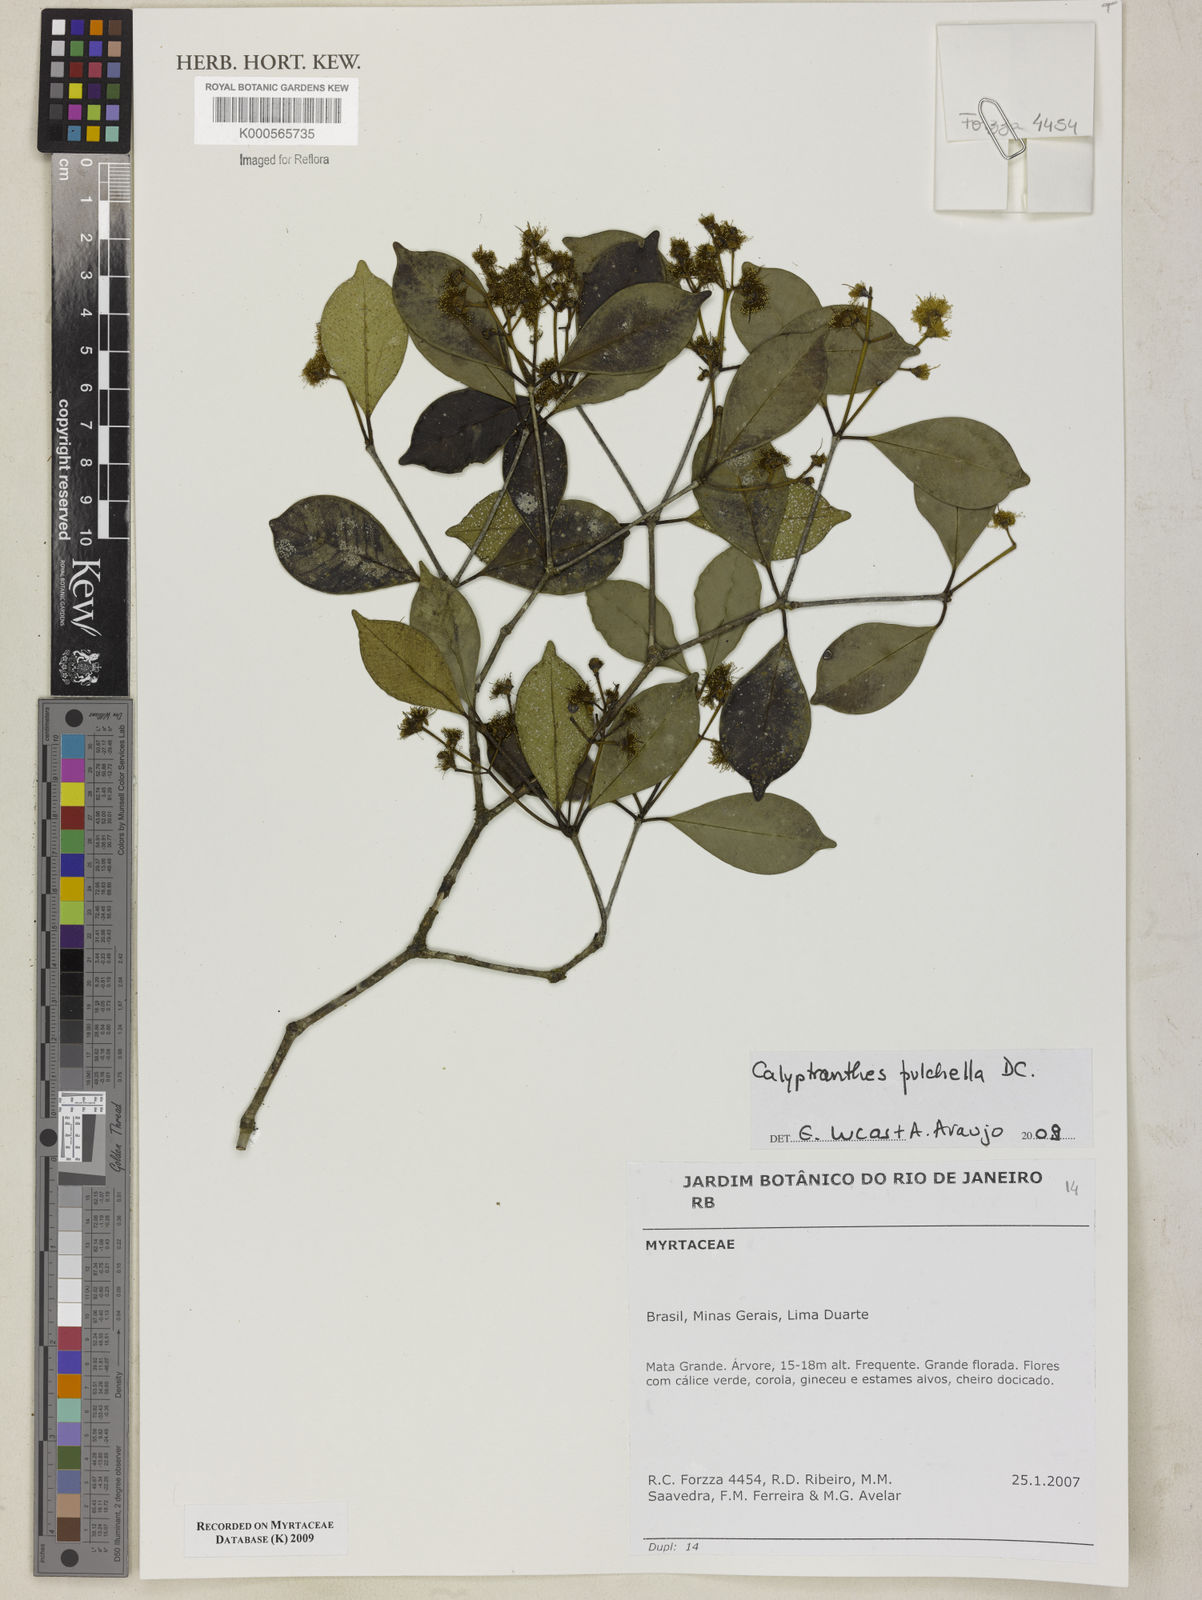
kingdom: Plantae
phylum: Tracheophyta
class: Magnoliopsida
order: Myrtales
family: Myrtaceae
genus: Myrcia
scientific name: Myrcia pulchella
